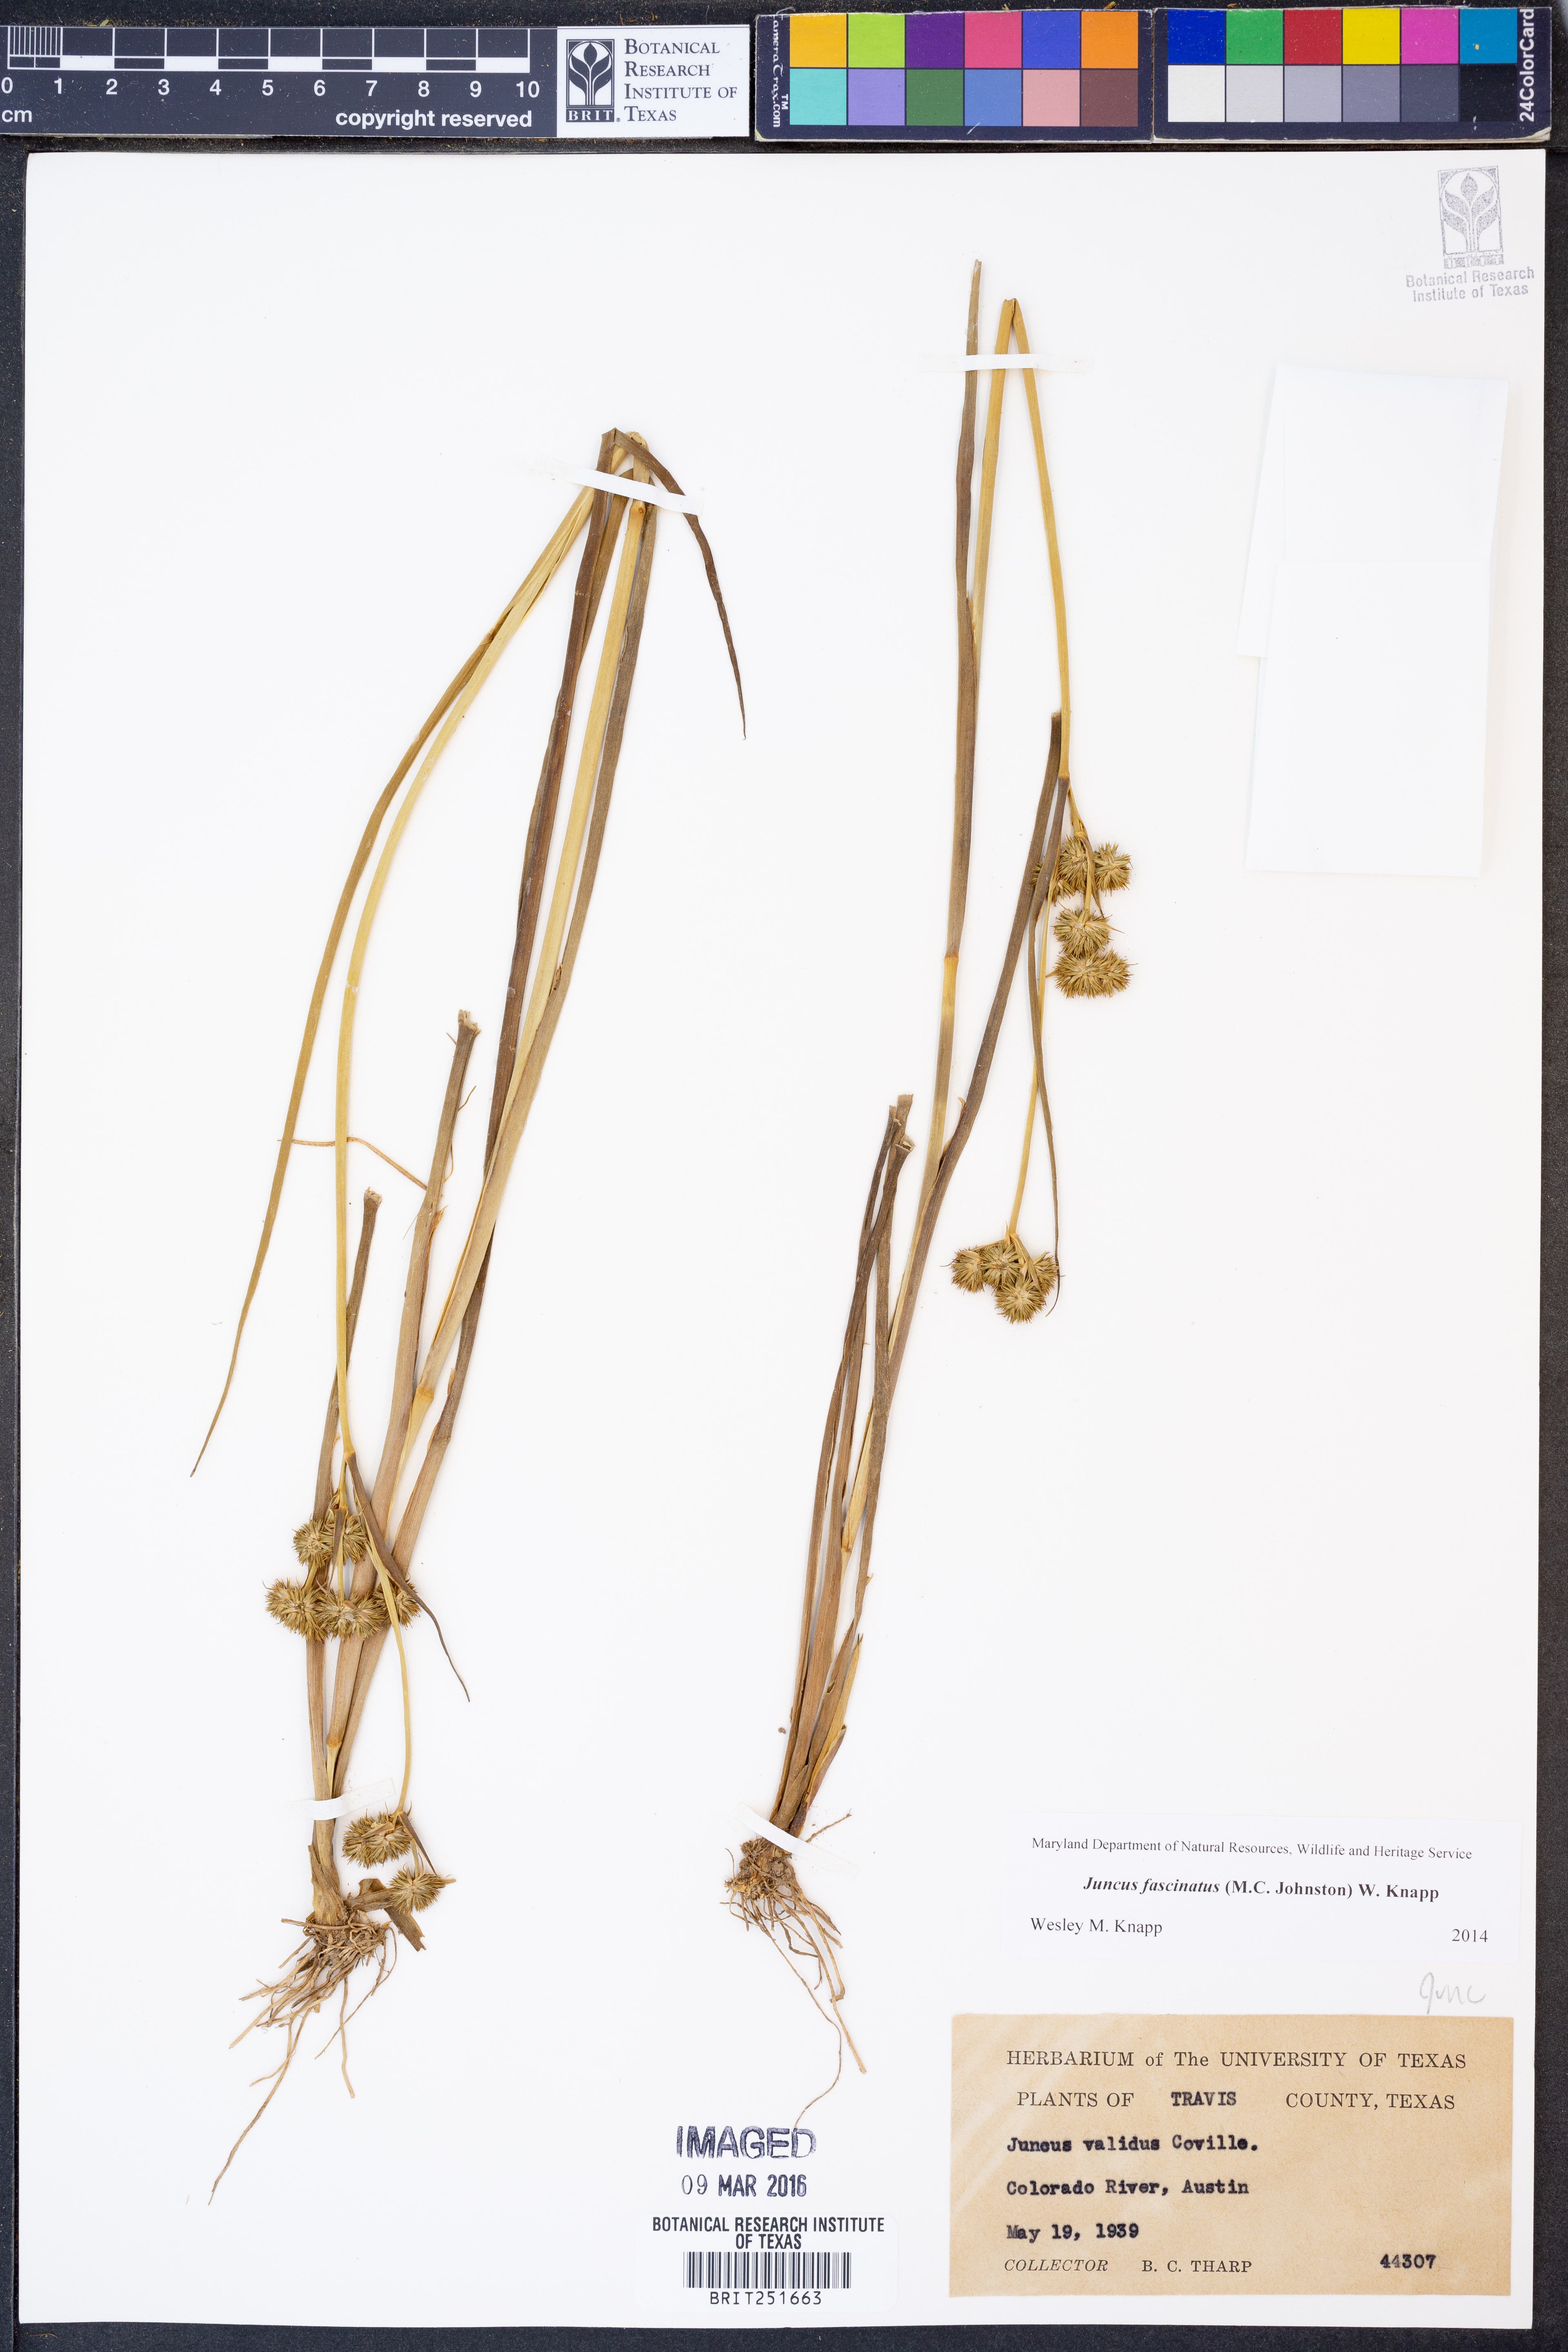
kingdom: Plantae
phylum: Tracheophyta
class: Liliopsida
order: Poales
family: Juncaceae
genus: Juncus
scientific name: Juncus fascinatus
